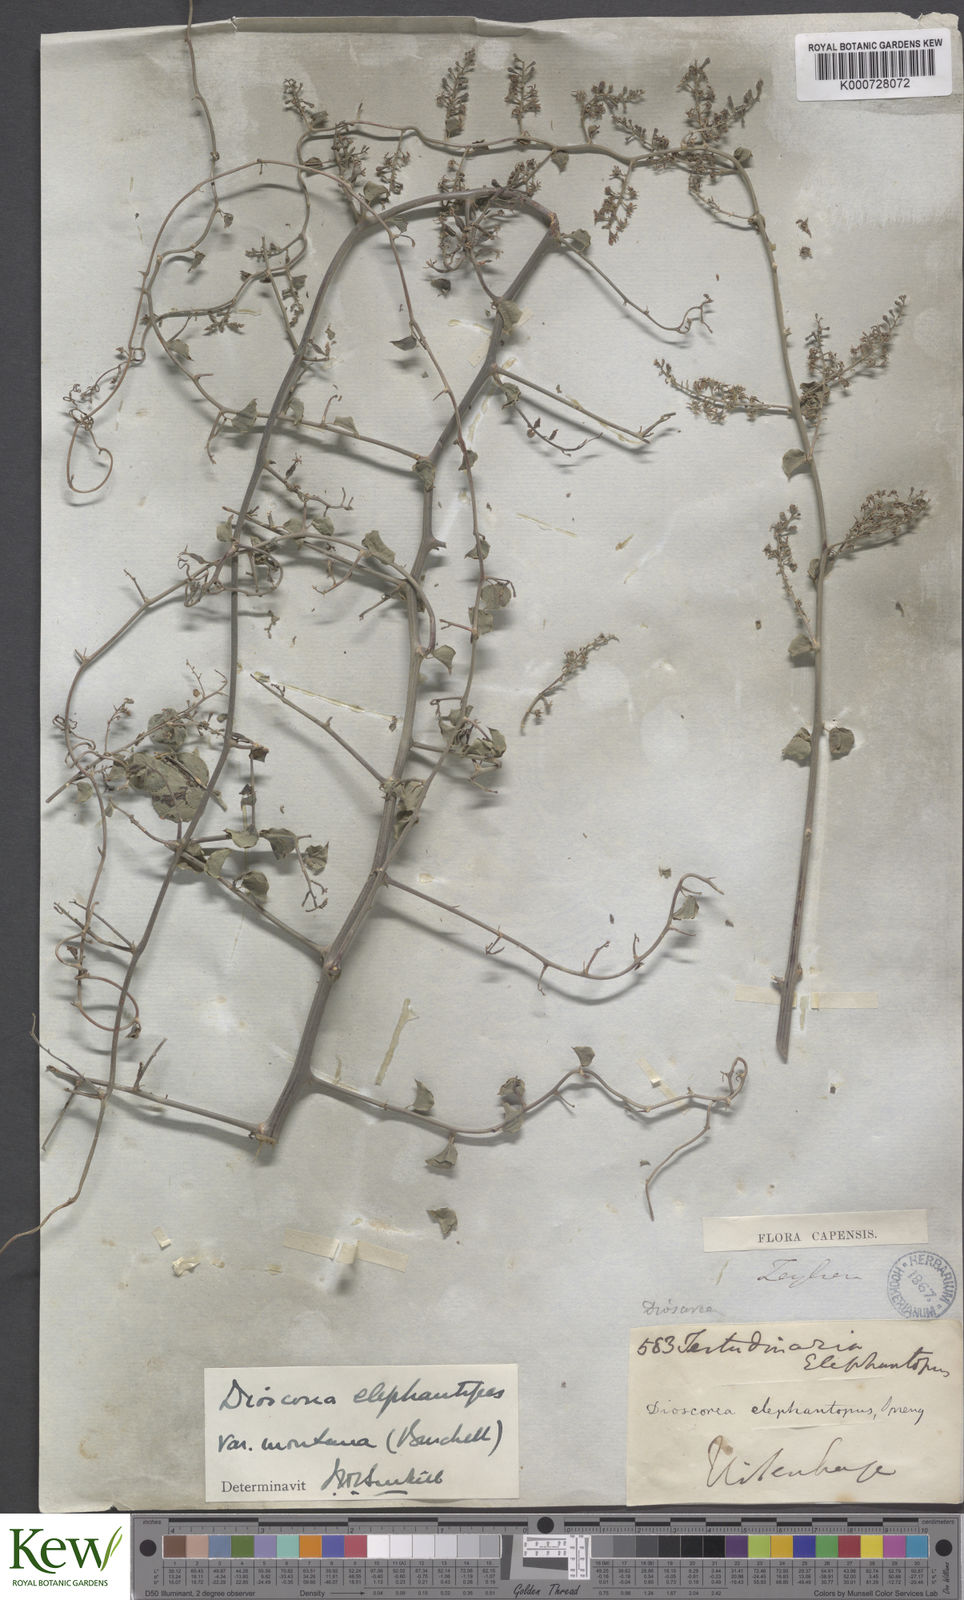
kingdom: Plantae
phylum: Tracheophyta
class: Liliopsida
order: Dioscoreales
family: Dioscoreaceae
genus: Dioscorea
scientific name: Dioscorea
